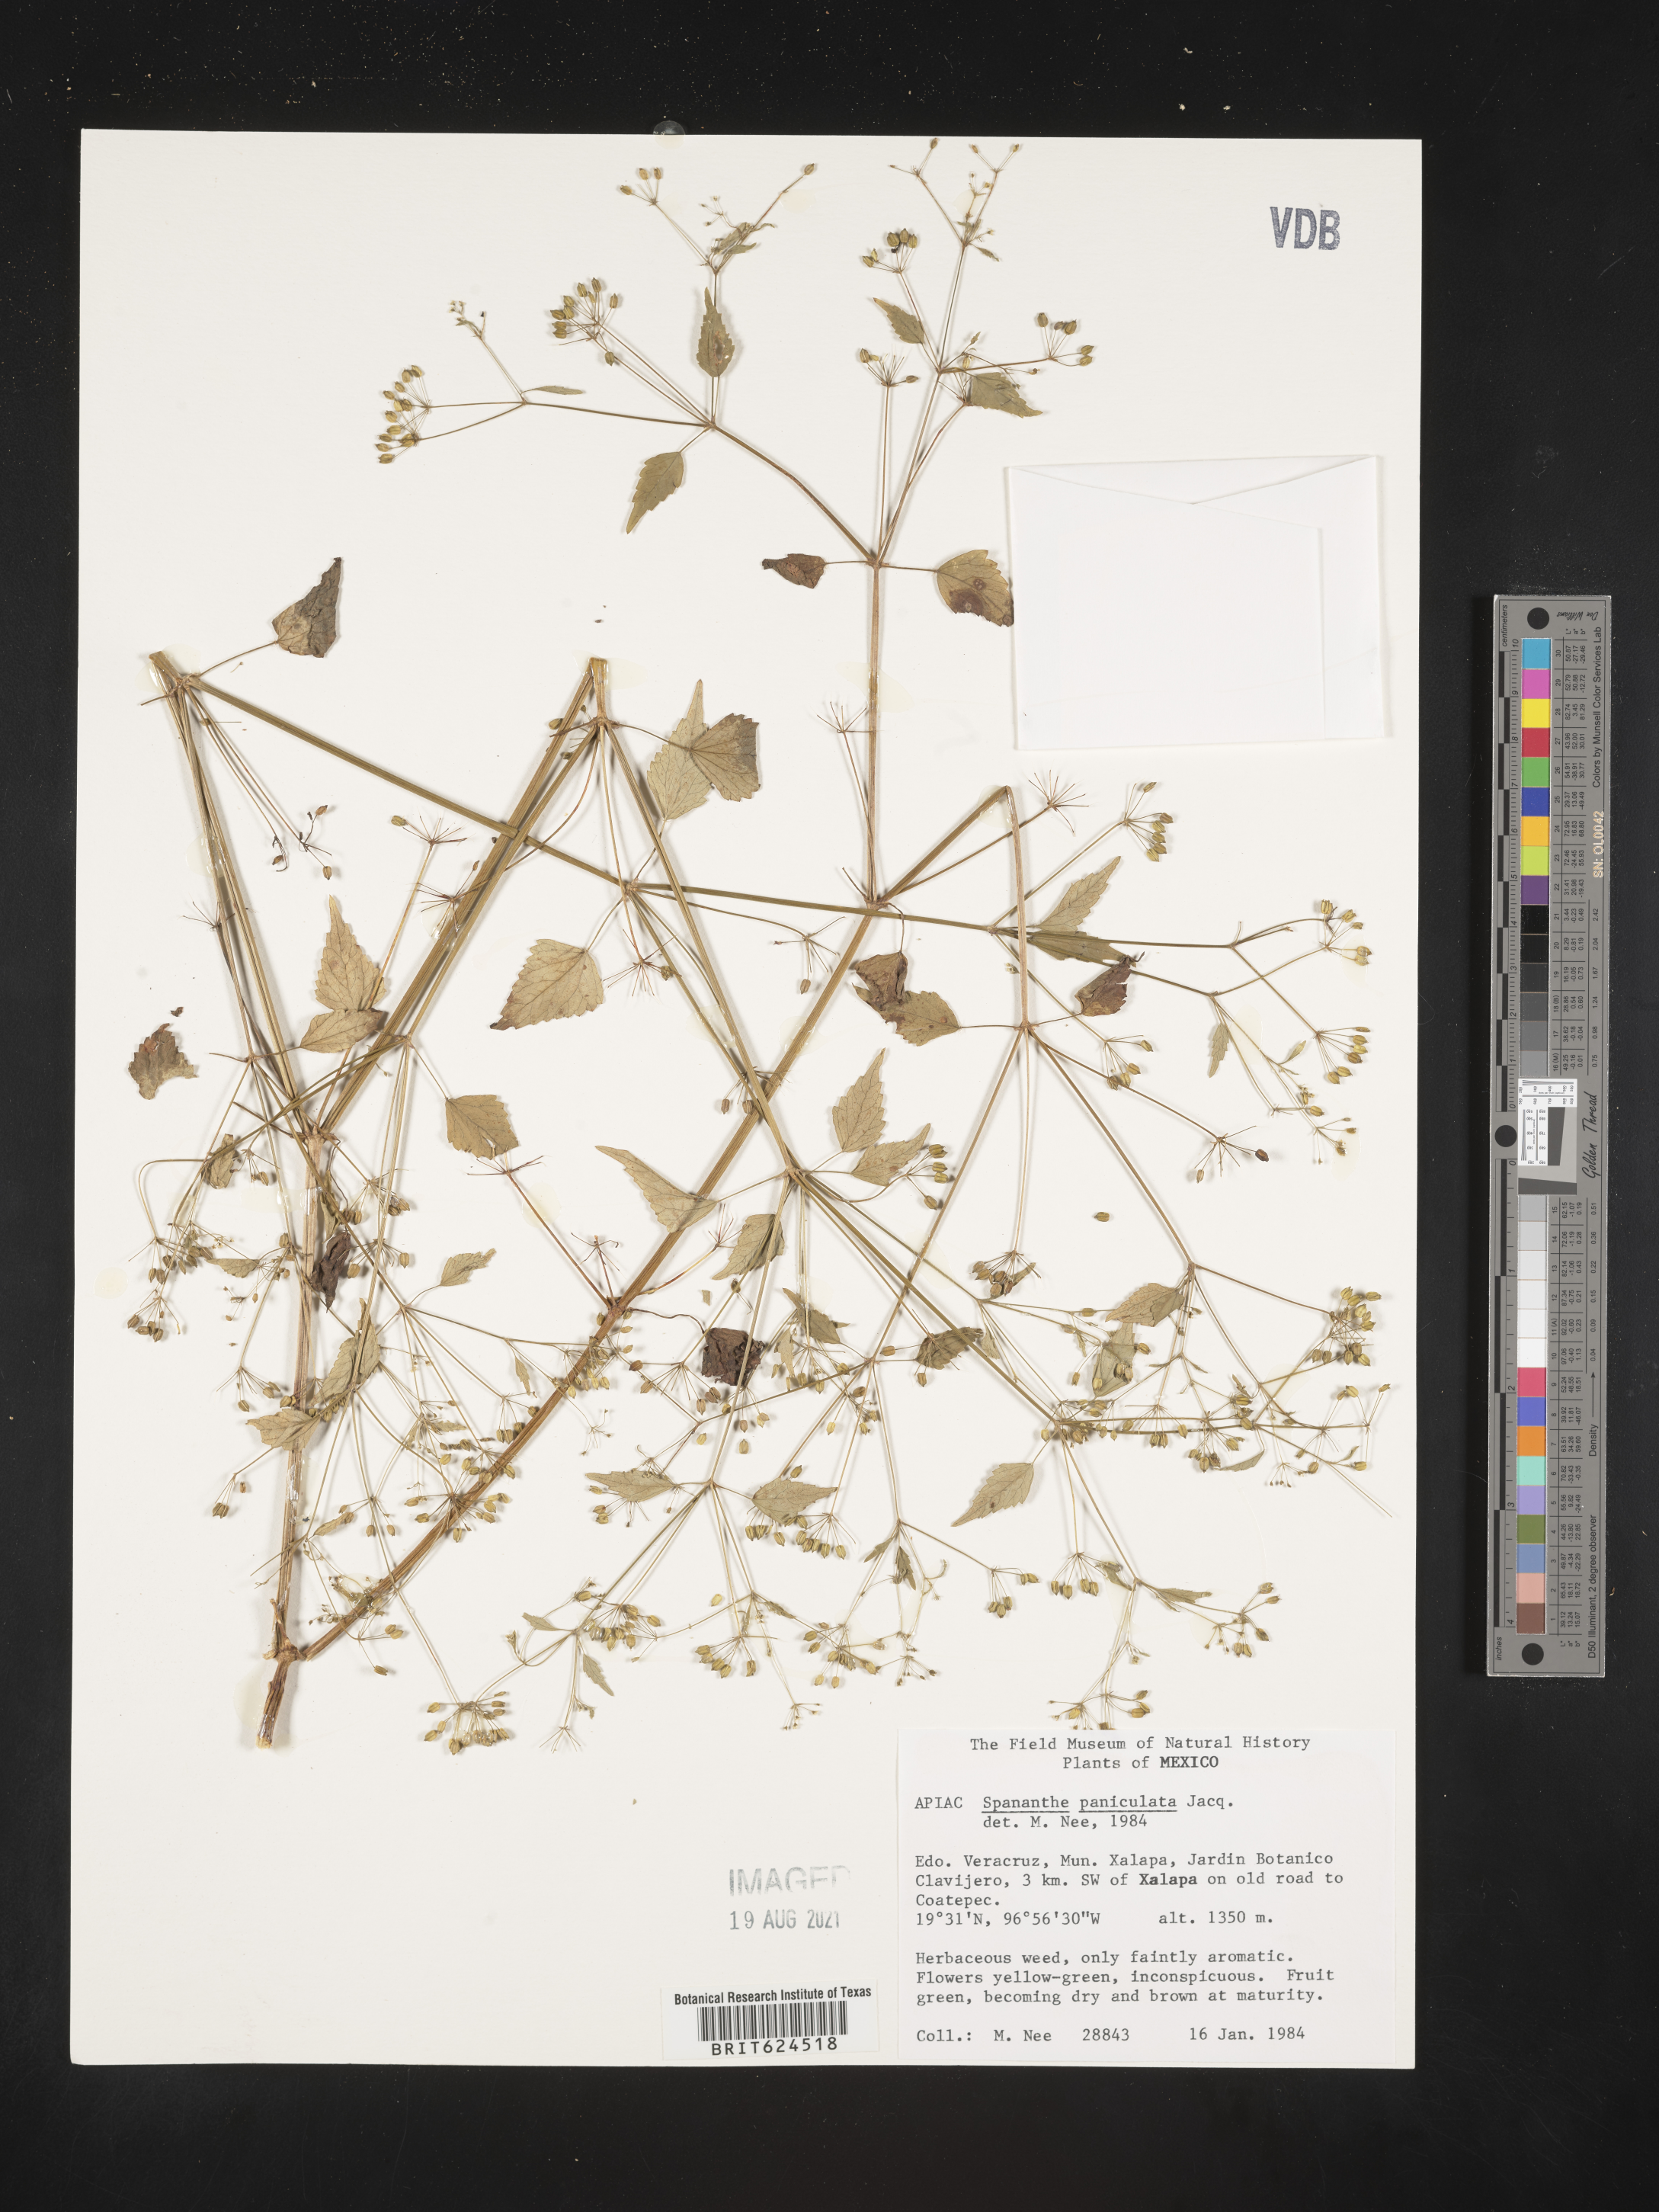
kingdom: Plantae
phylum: Tracheophyta
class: Magnoliopsida
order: Apiales
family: Apiaceae
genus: Spananthe
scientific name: Spananthe
